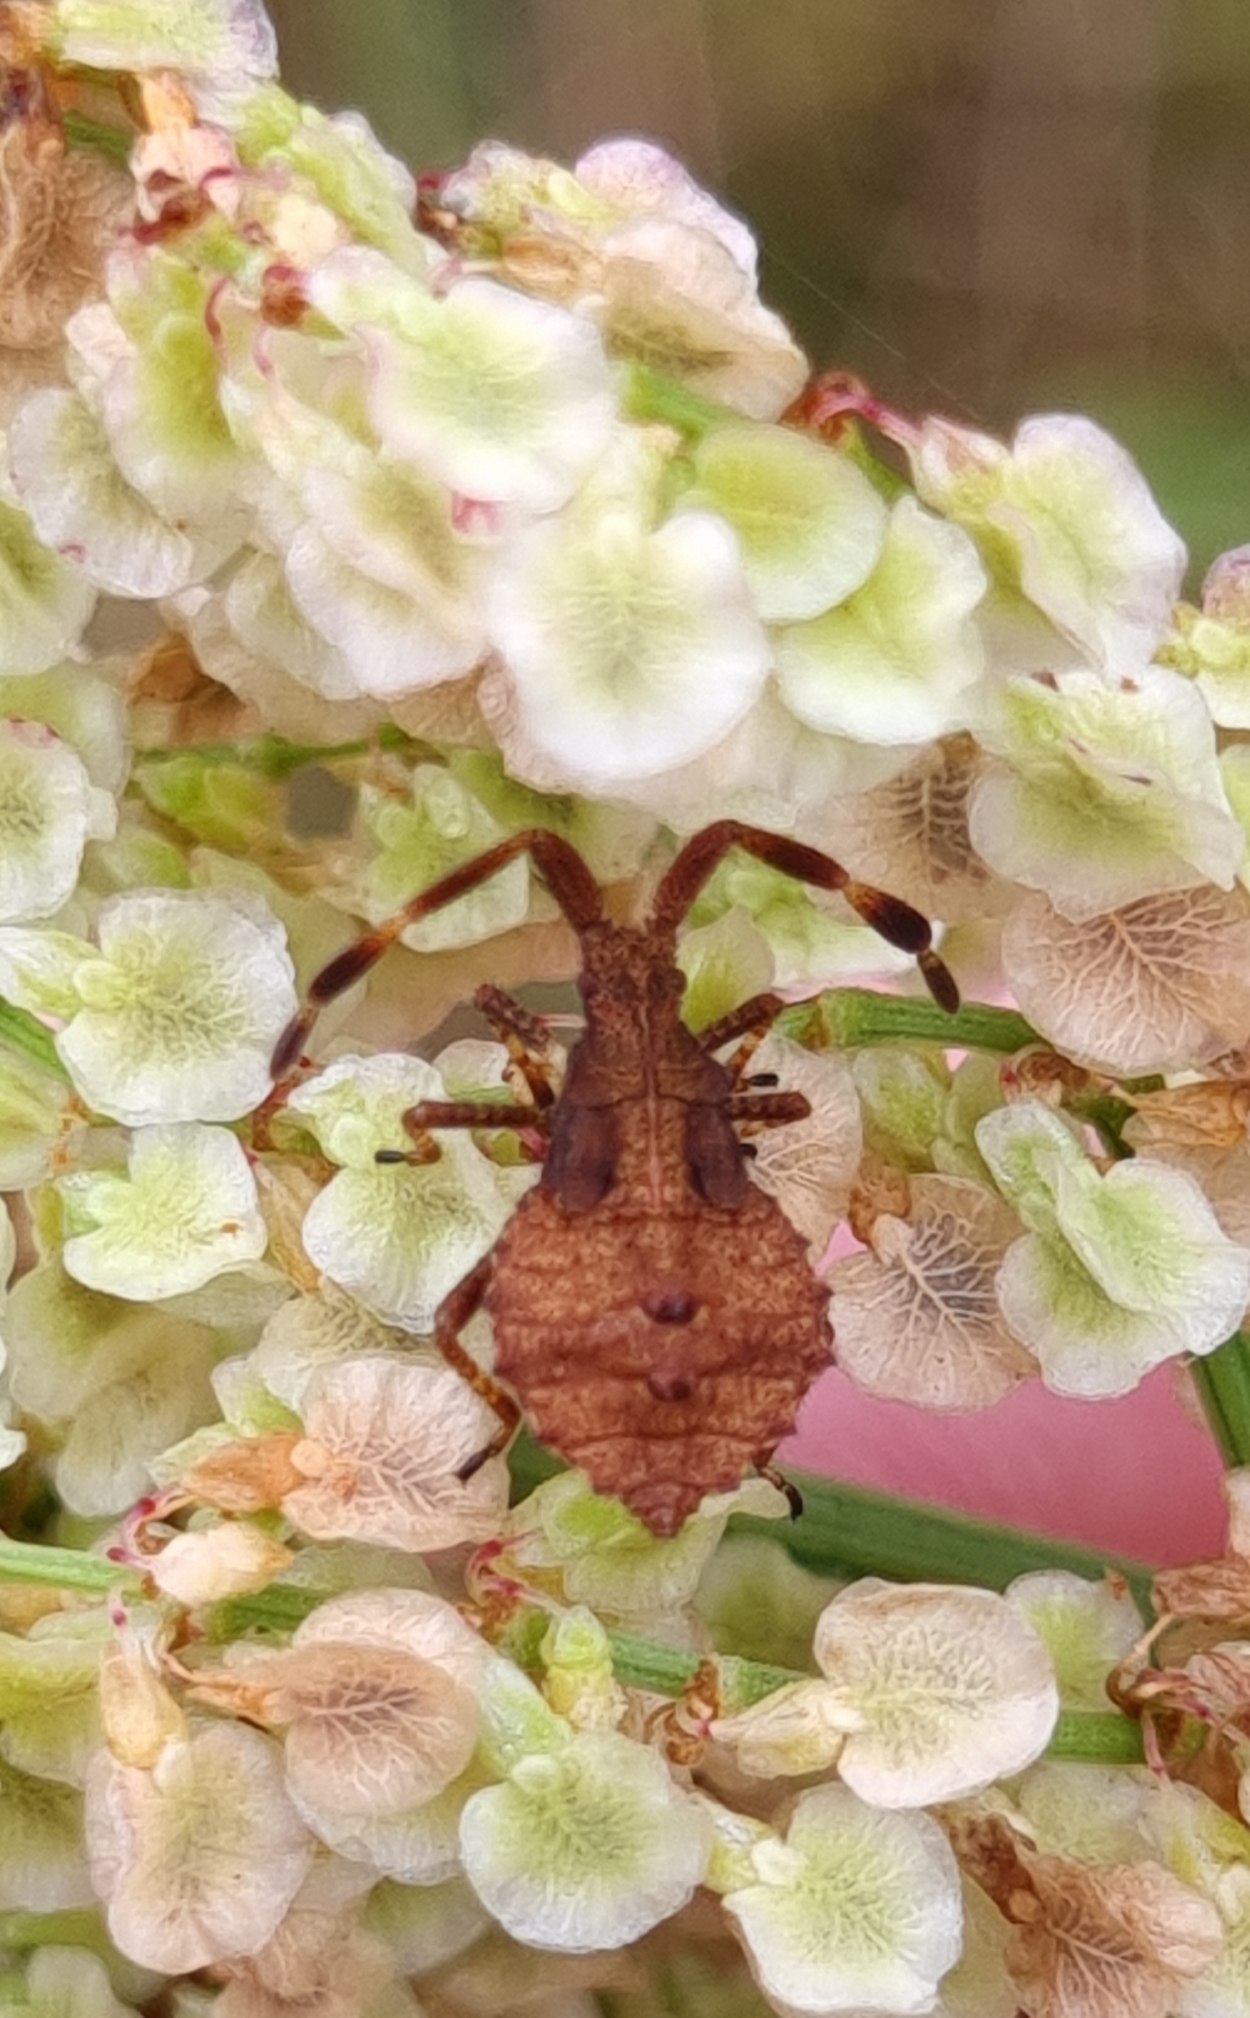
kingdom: Animalia
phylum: Arthropoda
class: Insecta
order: Hemiptera
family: Coreidae
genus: Coreus
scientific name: Coreus marginatus
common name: Skræppetæge
